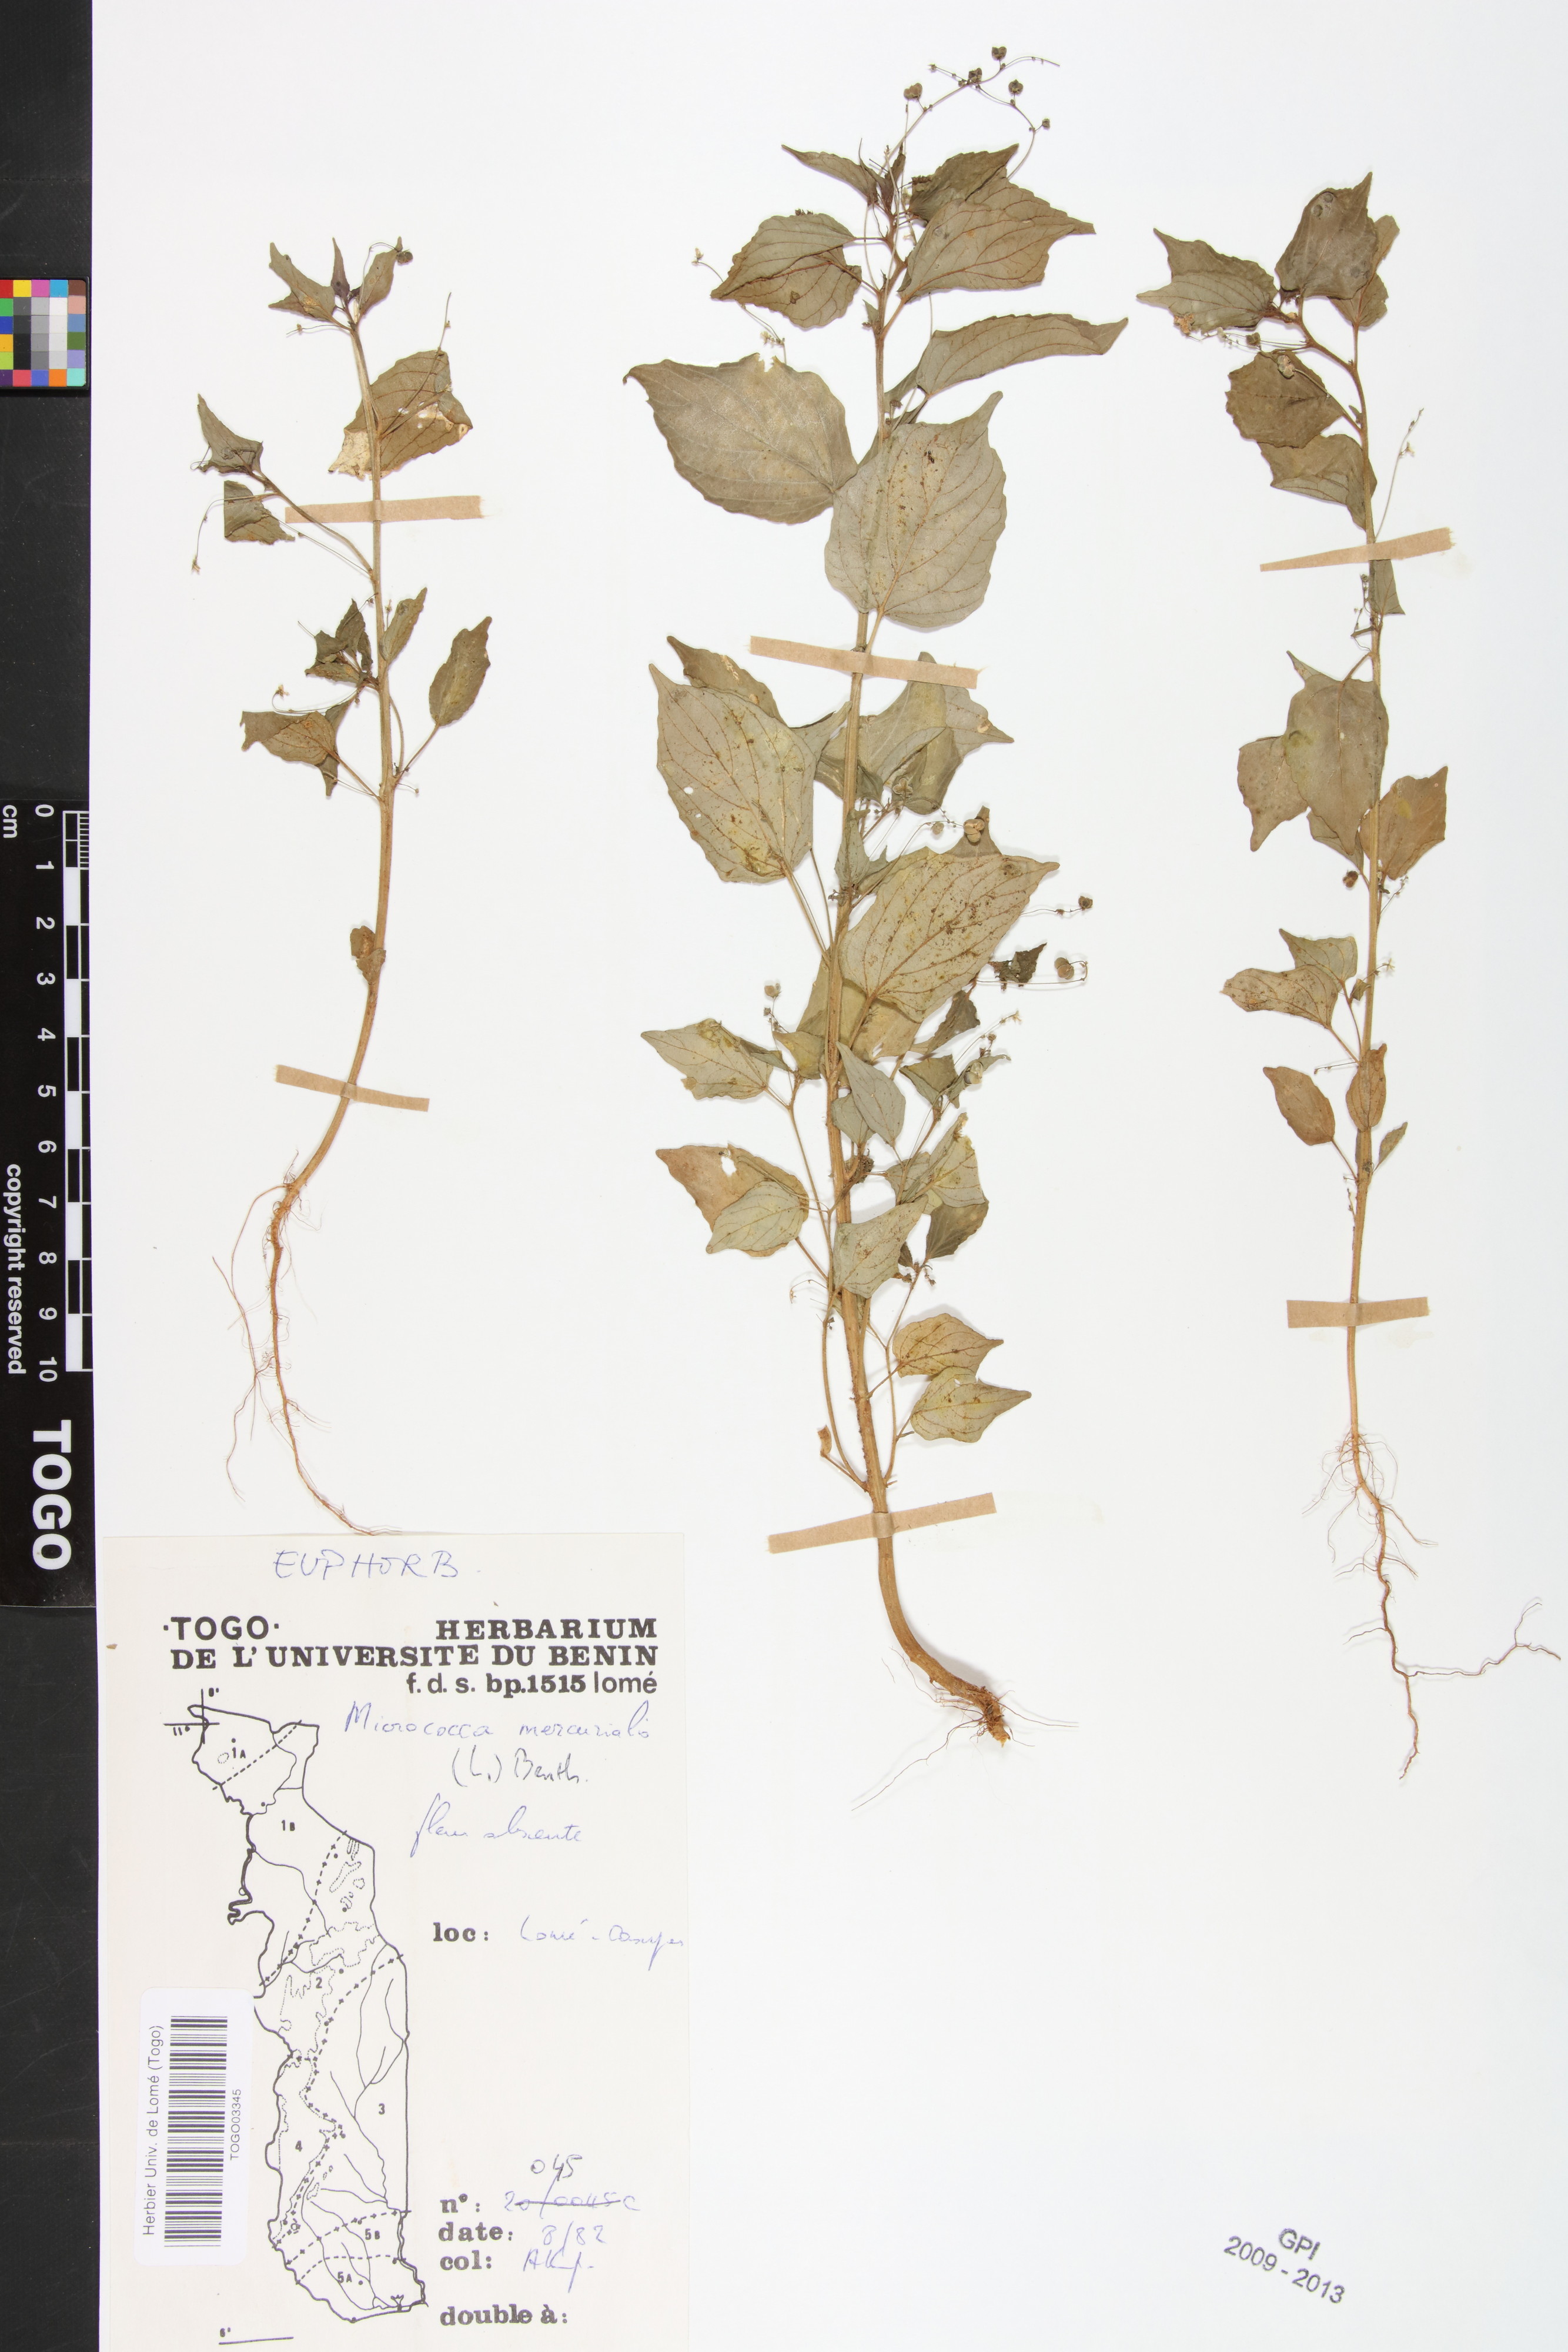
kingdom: Plantae
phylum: Tracheophyta
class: Magnoliopsida
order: Malpighiales
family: Euphorbiaceae
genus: Micrococca
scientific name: Micrococca mercurialis
